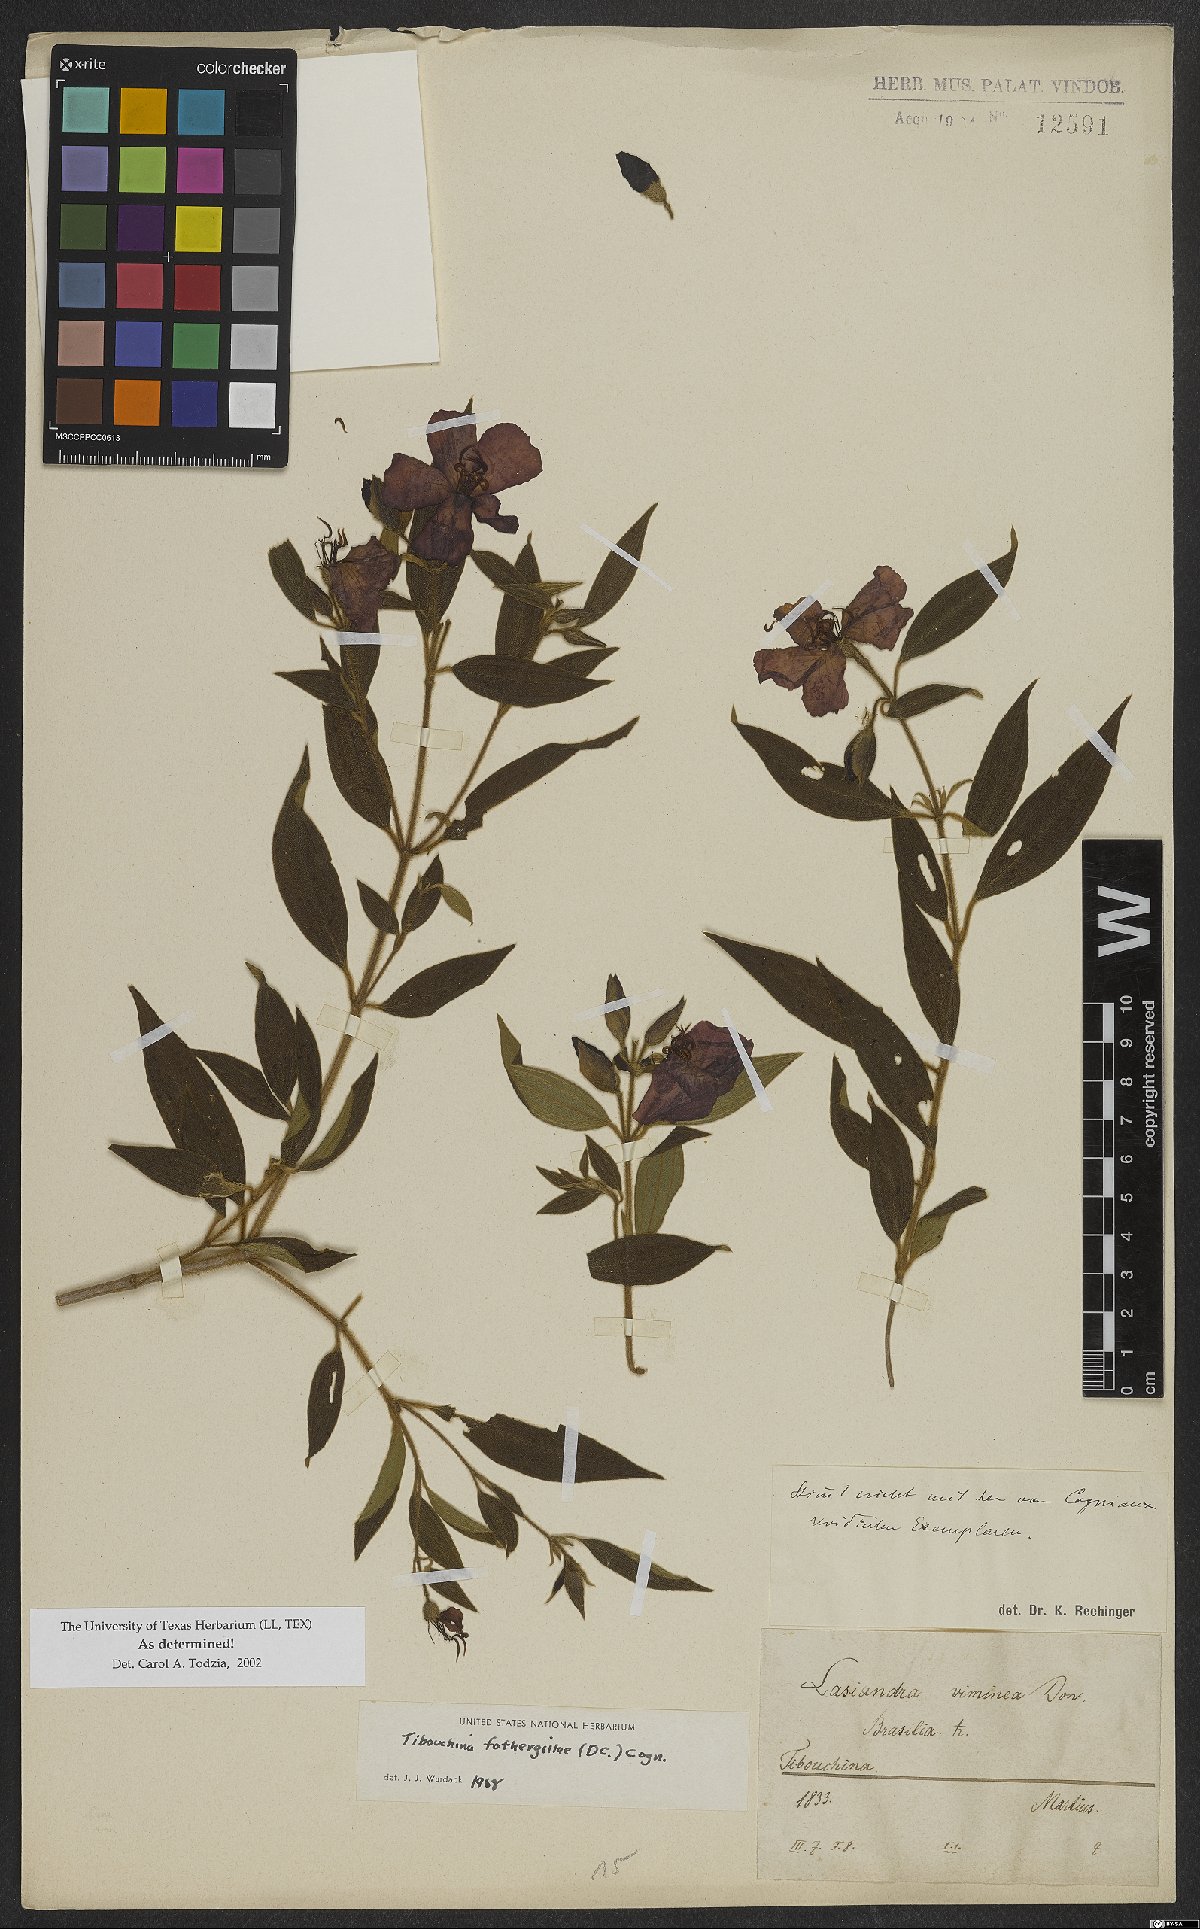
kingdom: Plantae
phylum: Tracheophyta
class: Magnoliopsida
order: Myrtales
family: Melastomataceae
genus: Pleroma
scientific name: Pleroma fothergillae
